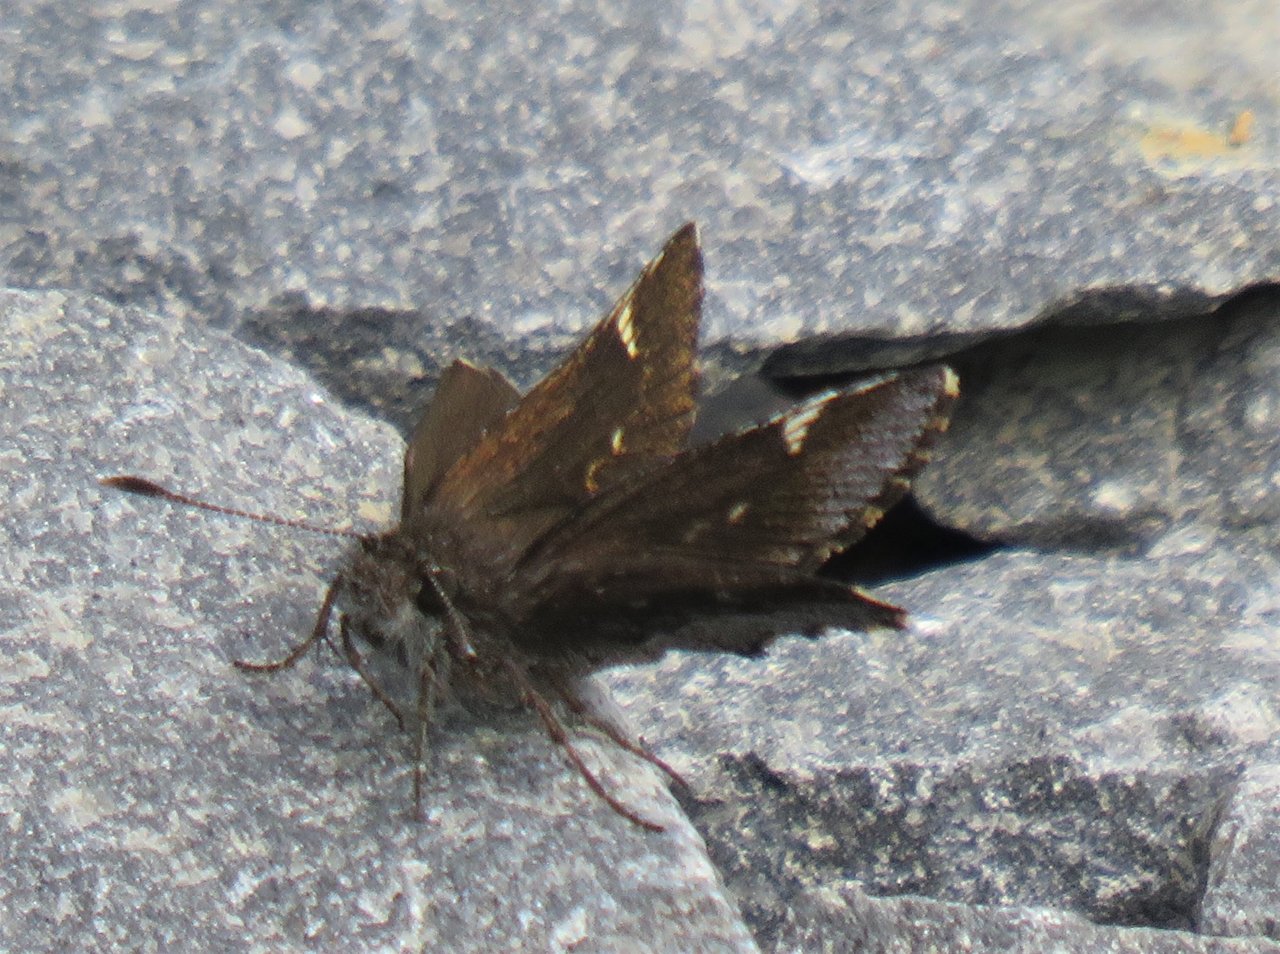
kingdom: Animalia
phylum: Arthropoda
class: Insecta
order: Lepidoptera
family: Hesperiidae
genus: Mastor
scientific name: Mastor vialis
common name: Common Roadside-Skipper
